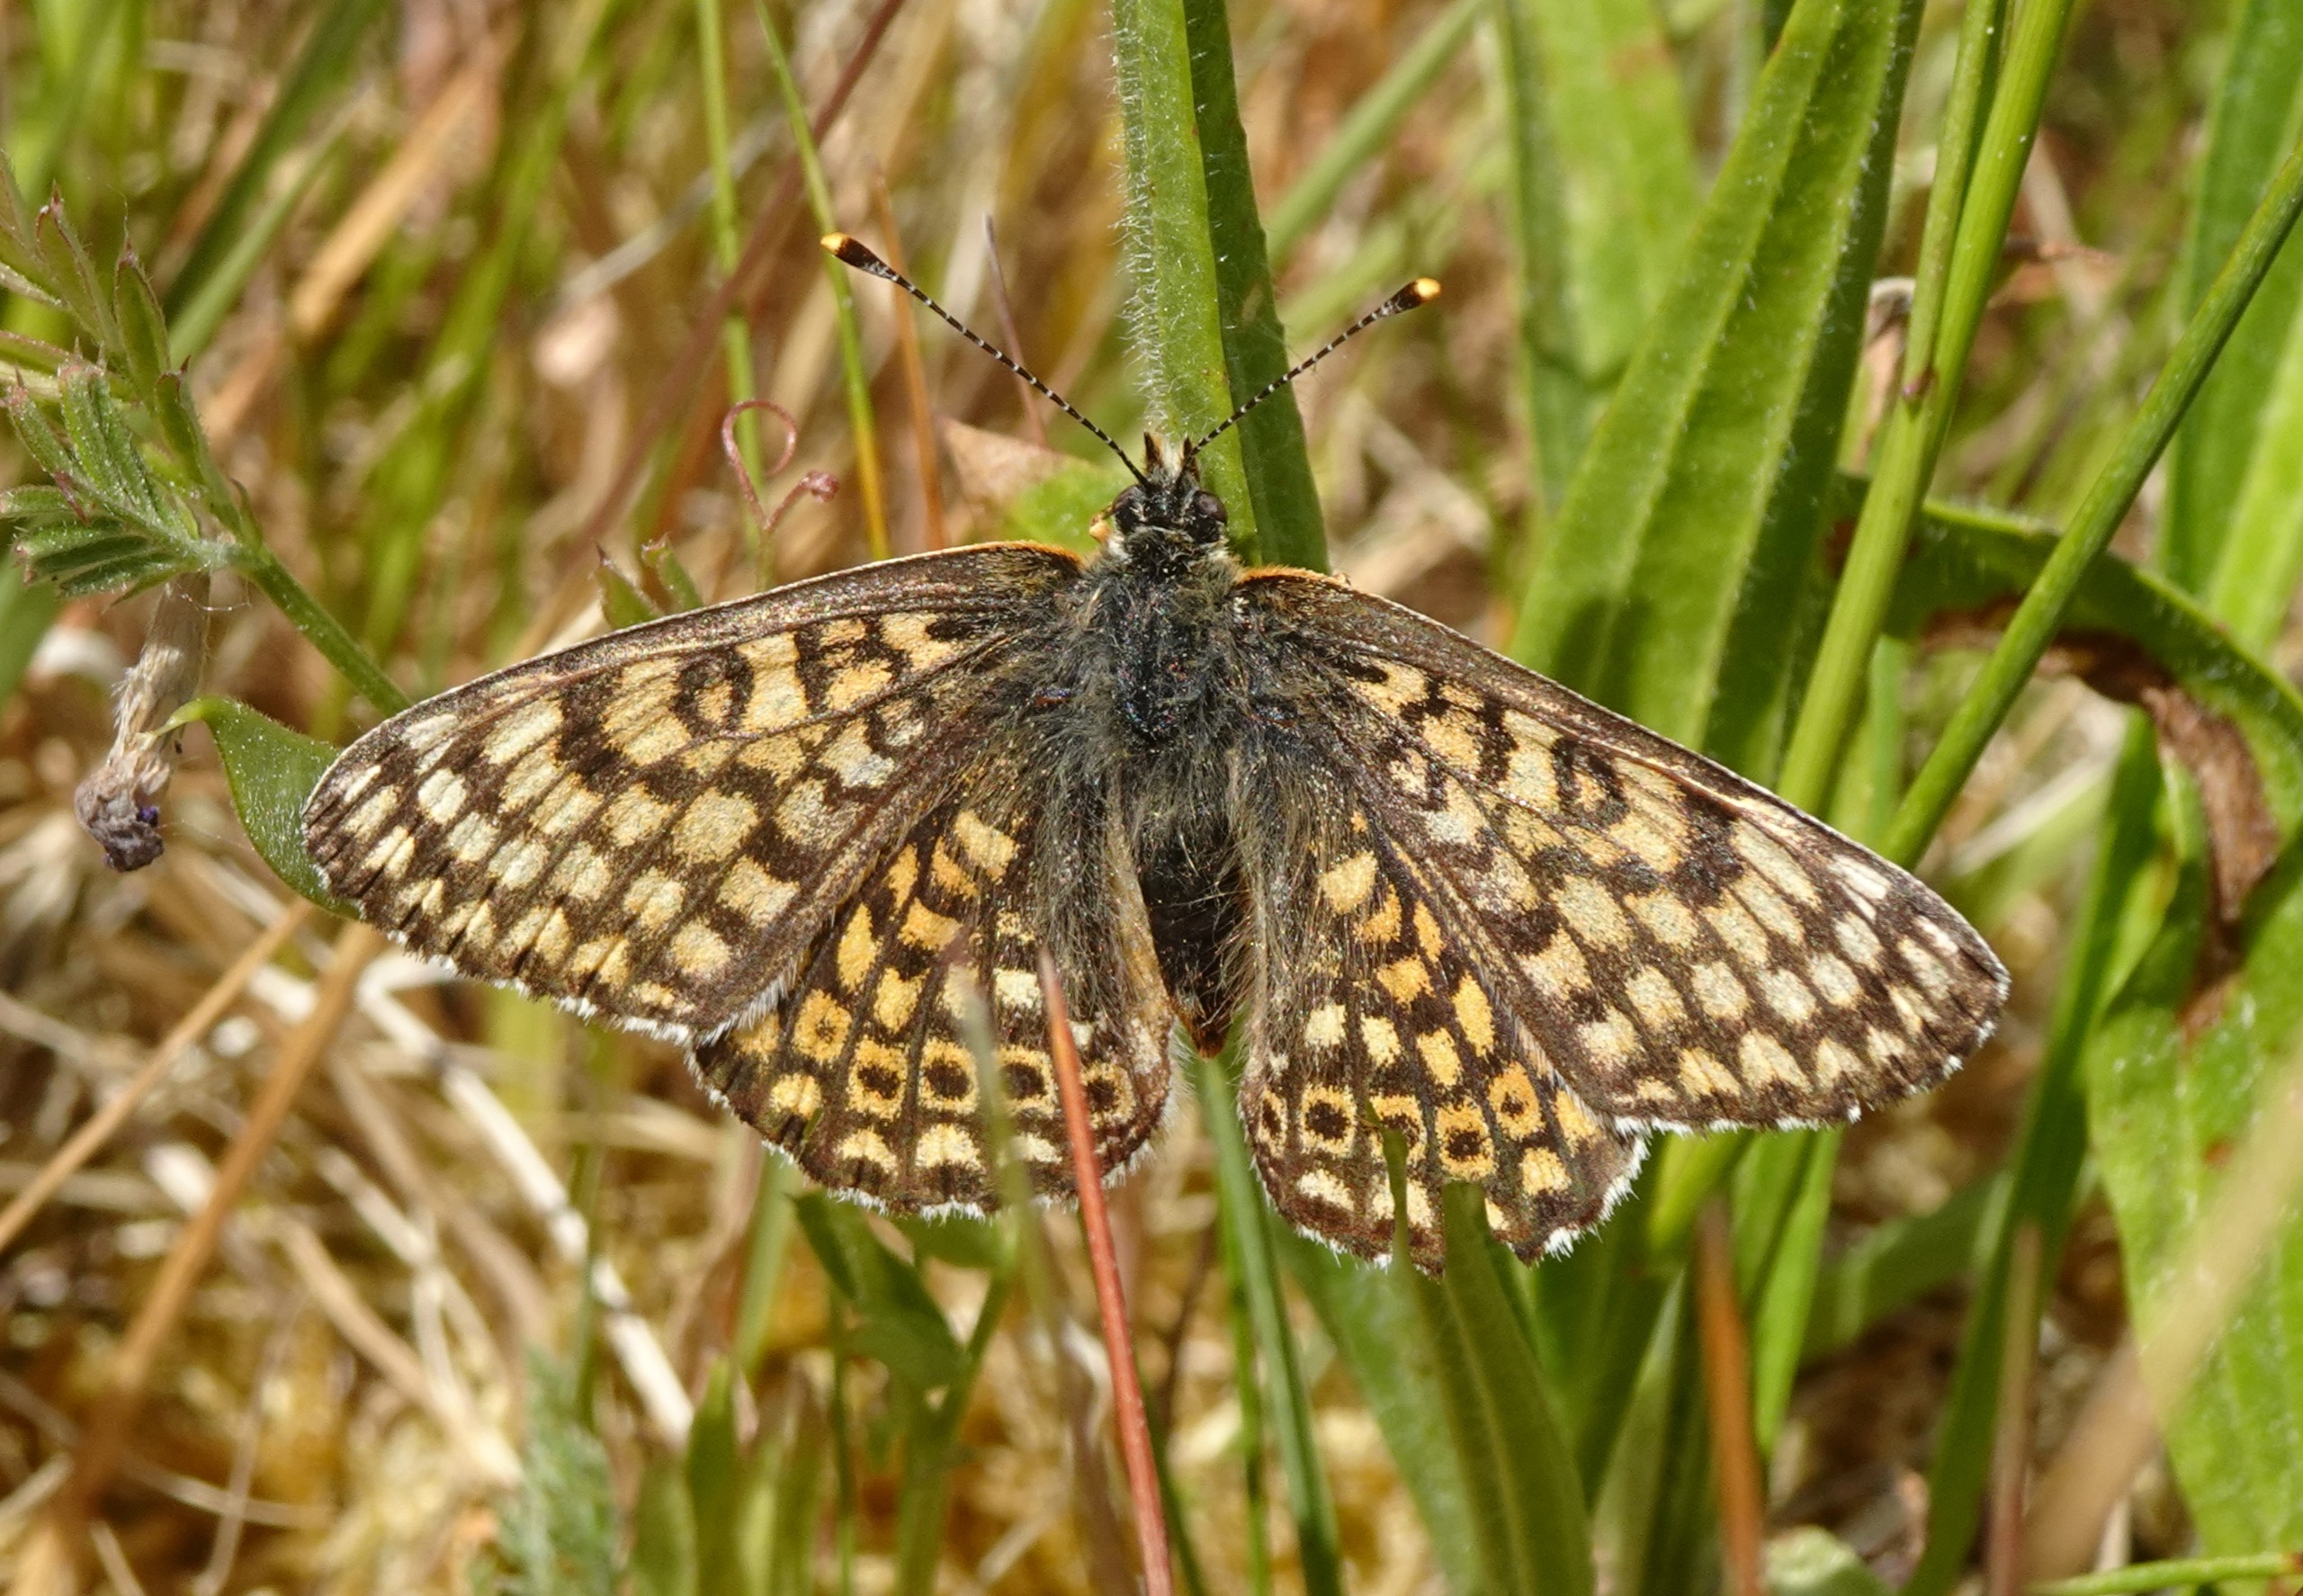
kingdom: Animalia
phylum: Arthropoda
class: Insecta
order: Lepidoptera
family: Nymphalidae
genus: Melitaea
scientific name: Melitaea cinxia
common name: Okkergul pletvinge
